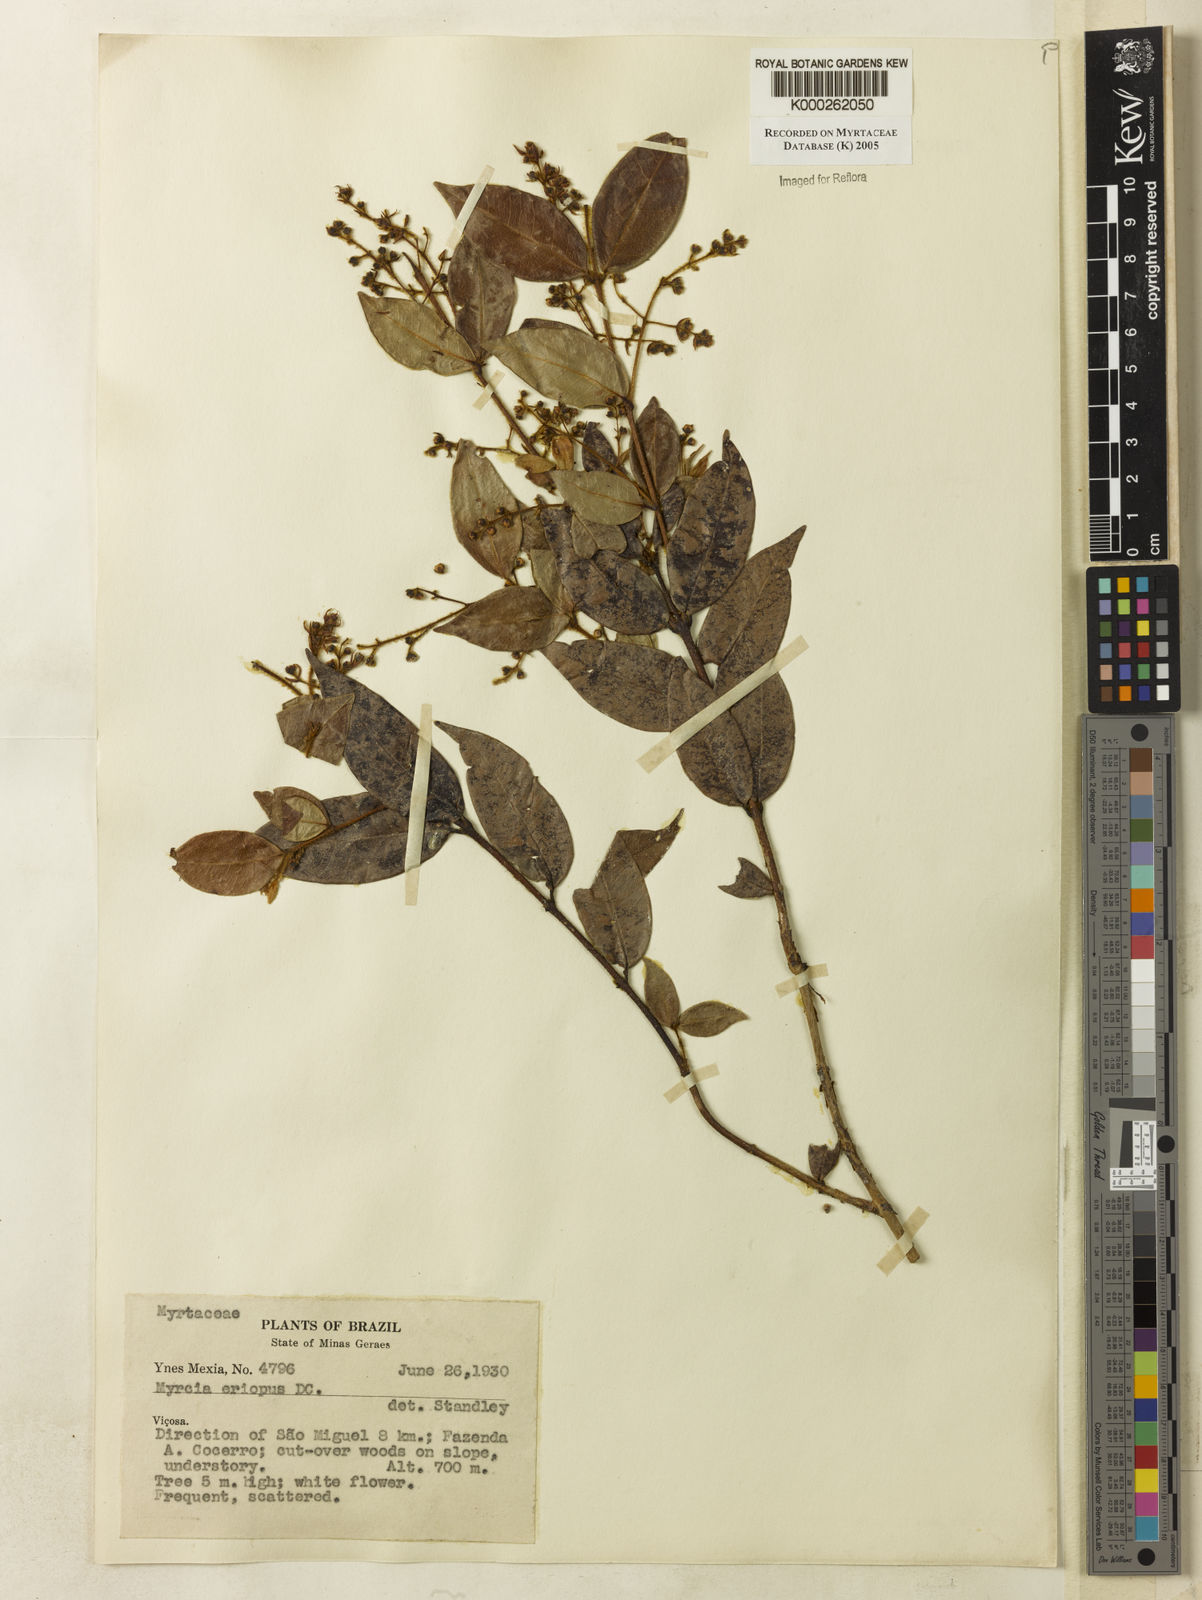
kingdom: Plantae
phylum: Tracheophyta
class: Magnoliopsida
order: Myrtales
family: Myrtaceae
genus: Myrcia
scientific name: Myrcia eriopus
